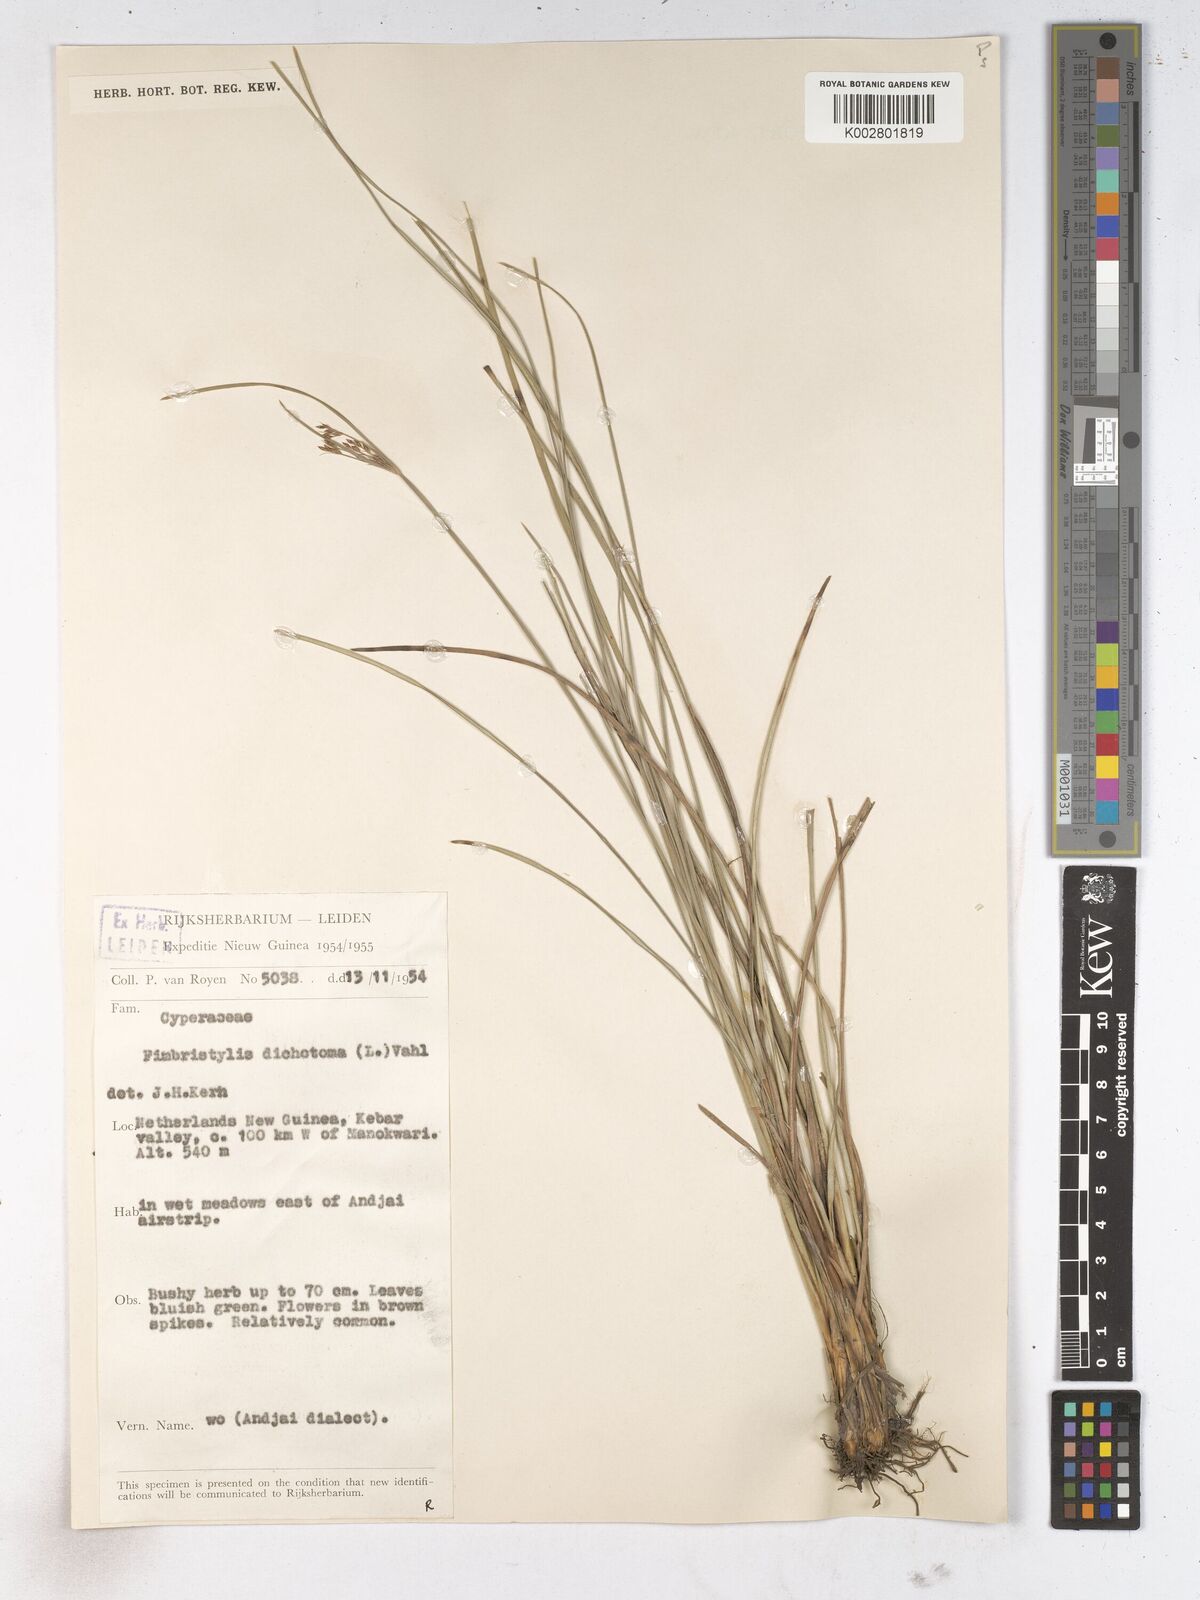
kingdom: Plantae
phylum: Tracheophyta
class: Liliopsida
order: Poales
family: Cyperaceae
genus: Fimbristylis
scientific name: Fimbristylis dichotoma
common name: Forked fimbry
